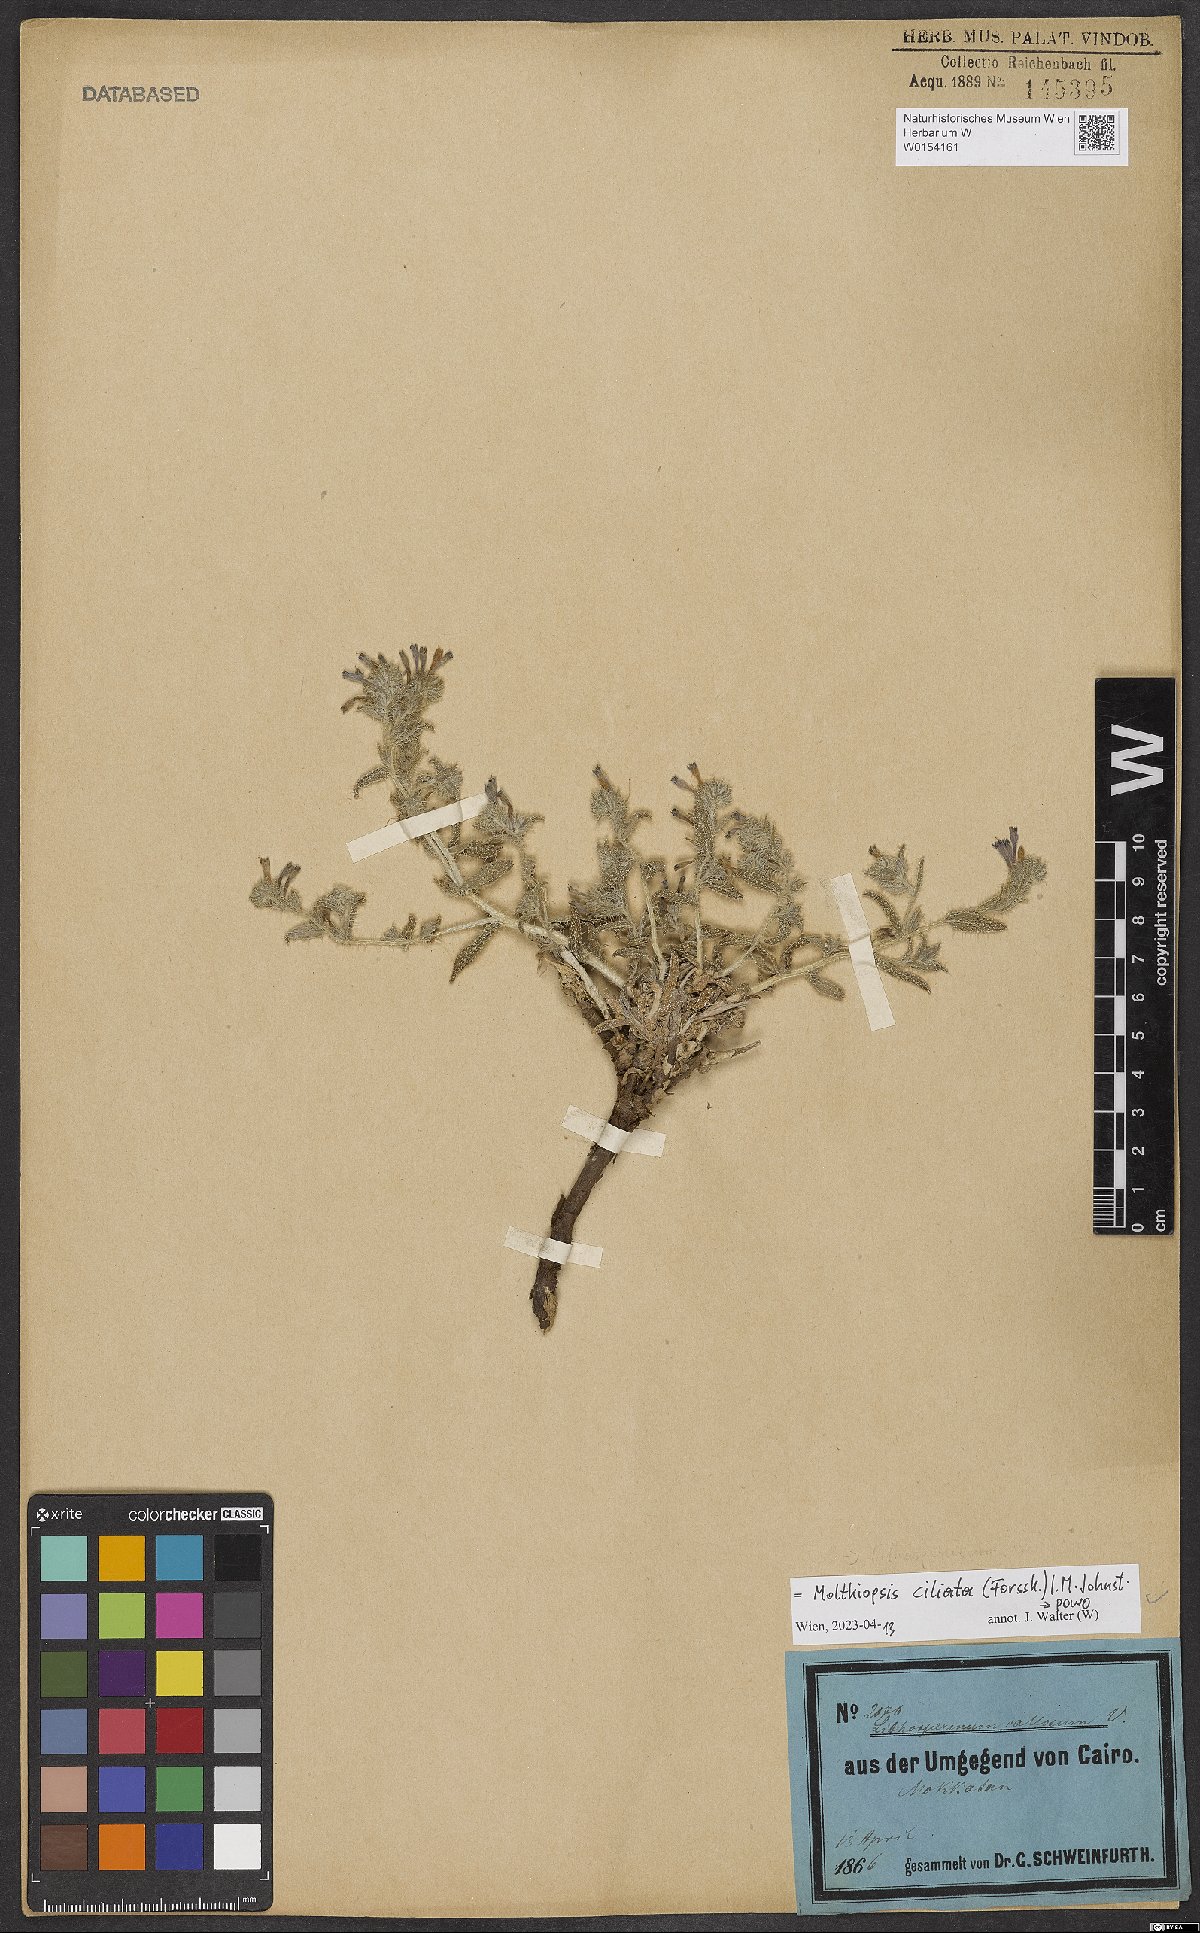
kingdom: Plantae
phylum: Tracheophyta
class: Magnoliopsida
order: Boraginales
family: Boraginaceae
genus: Moltkiopsis
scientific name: Moltkiopsis ciliata
